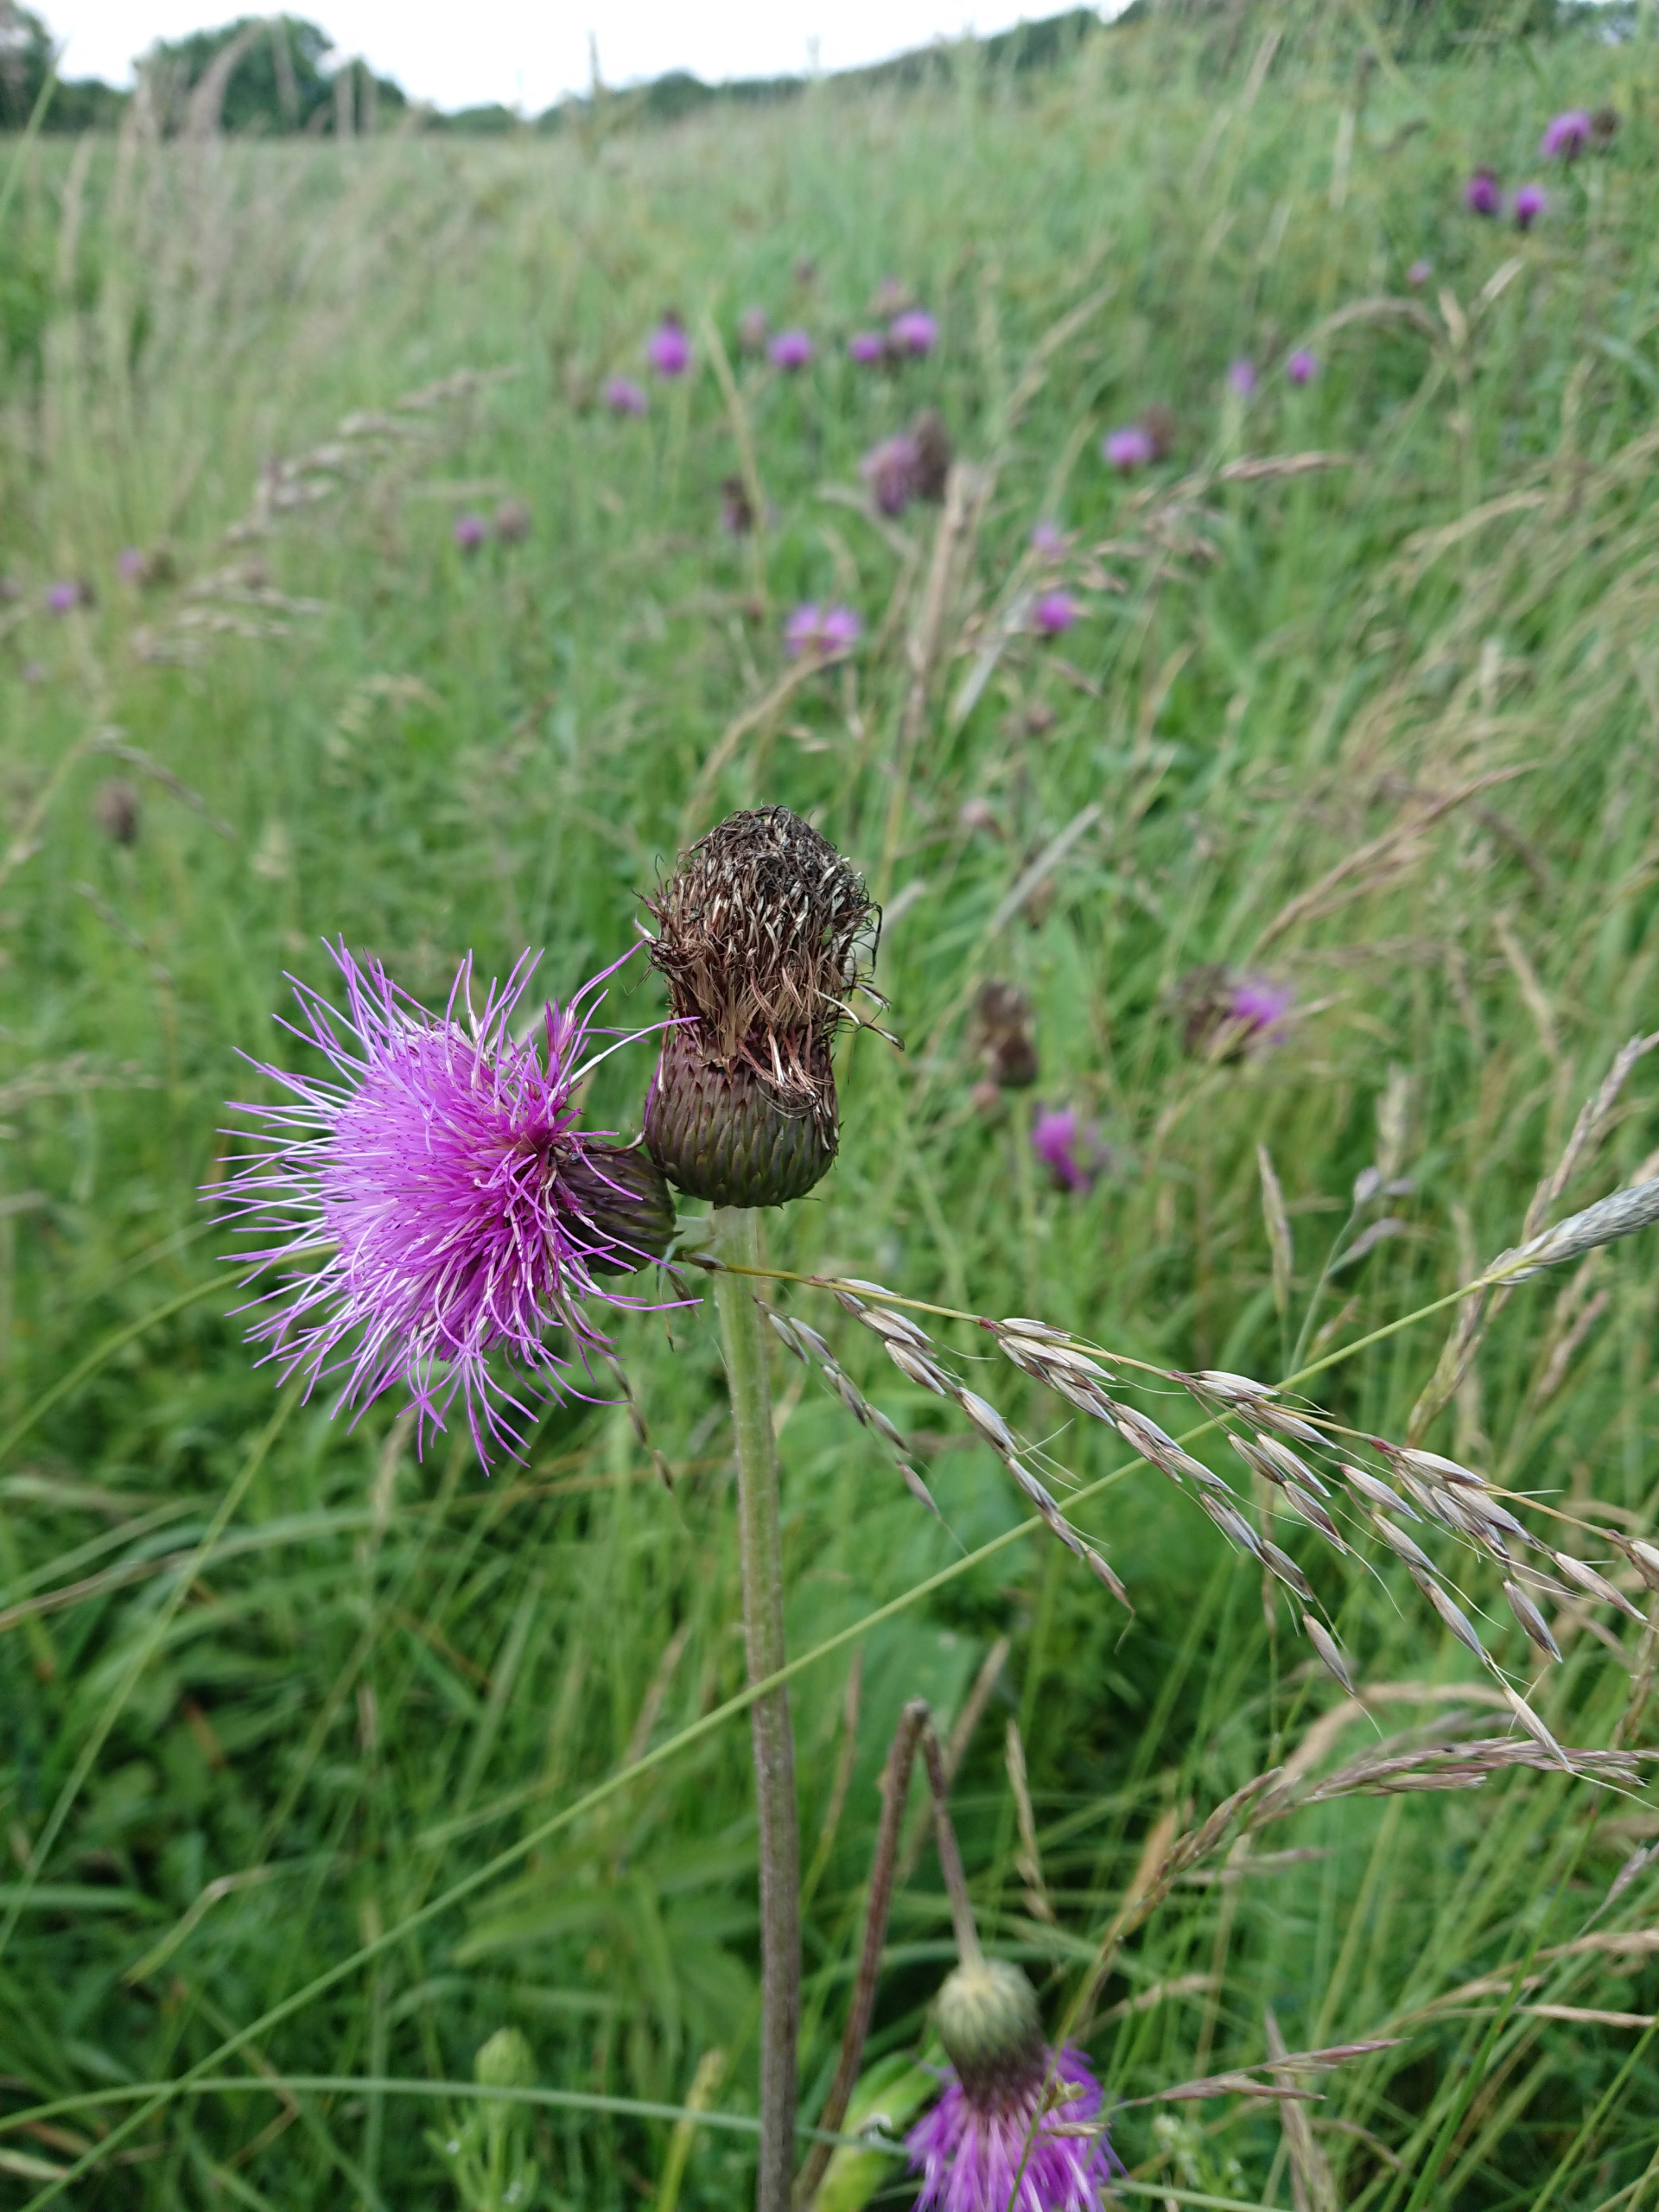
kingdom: Plantae
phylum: Tracheophyta
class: Magnoliopsida
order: Asterales
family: Asteraceae
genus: Cirsium
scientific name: Cirsium heterophyllum
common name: Forskelligbladet tidsel
